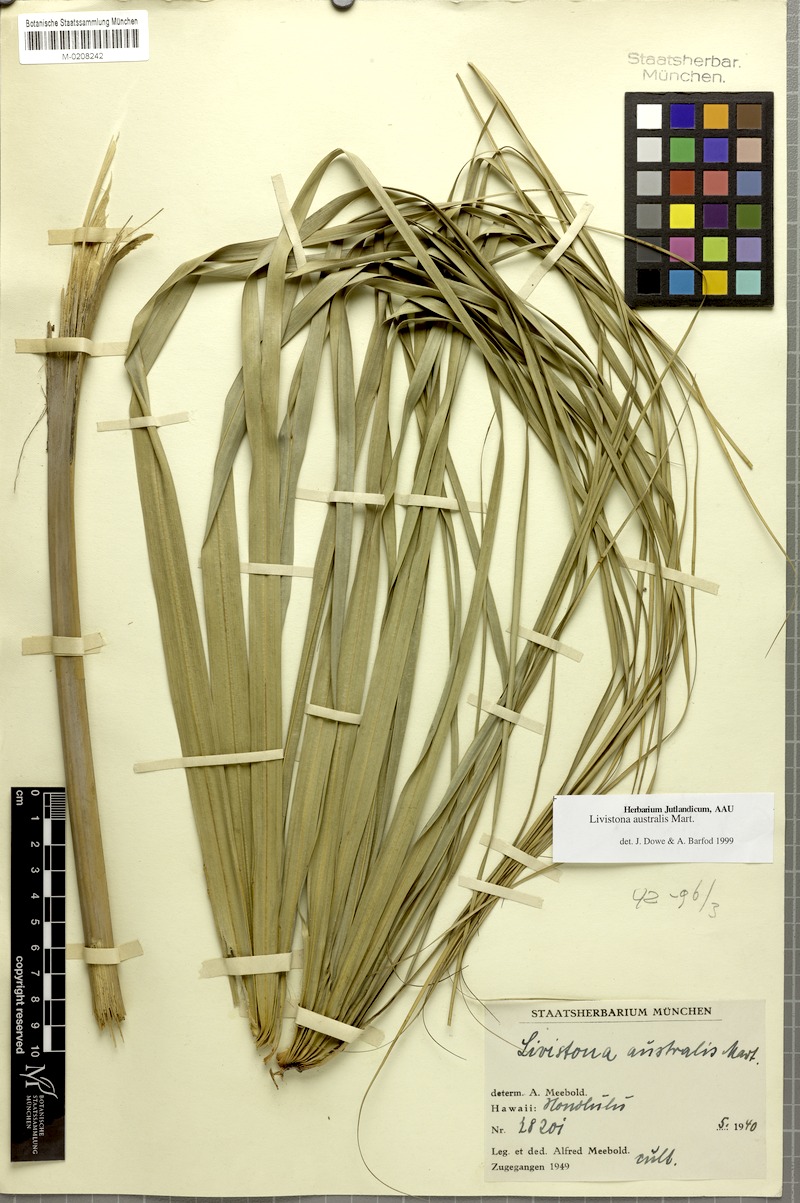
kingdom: Plantae
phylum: Tracheophyta
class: Liliopsida
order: Arecales
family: Arecaceae
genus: Livistona
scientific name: Livistona australis
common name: Cabbage fan palm
